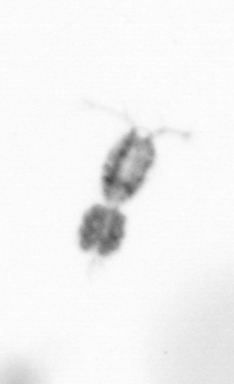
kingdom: Animalia
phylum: Arthropoda
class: Copepoda
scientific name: Copepoda
